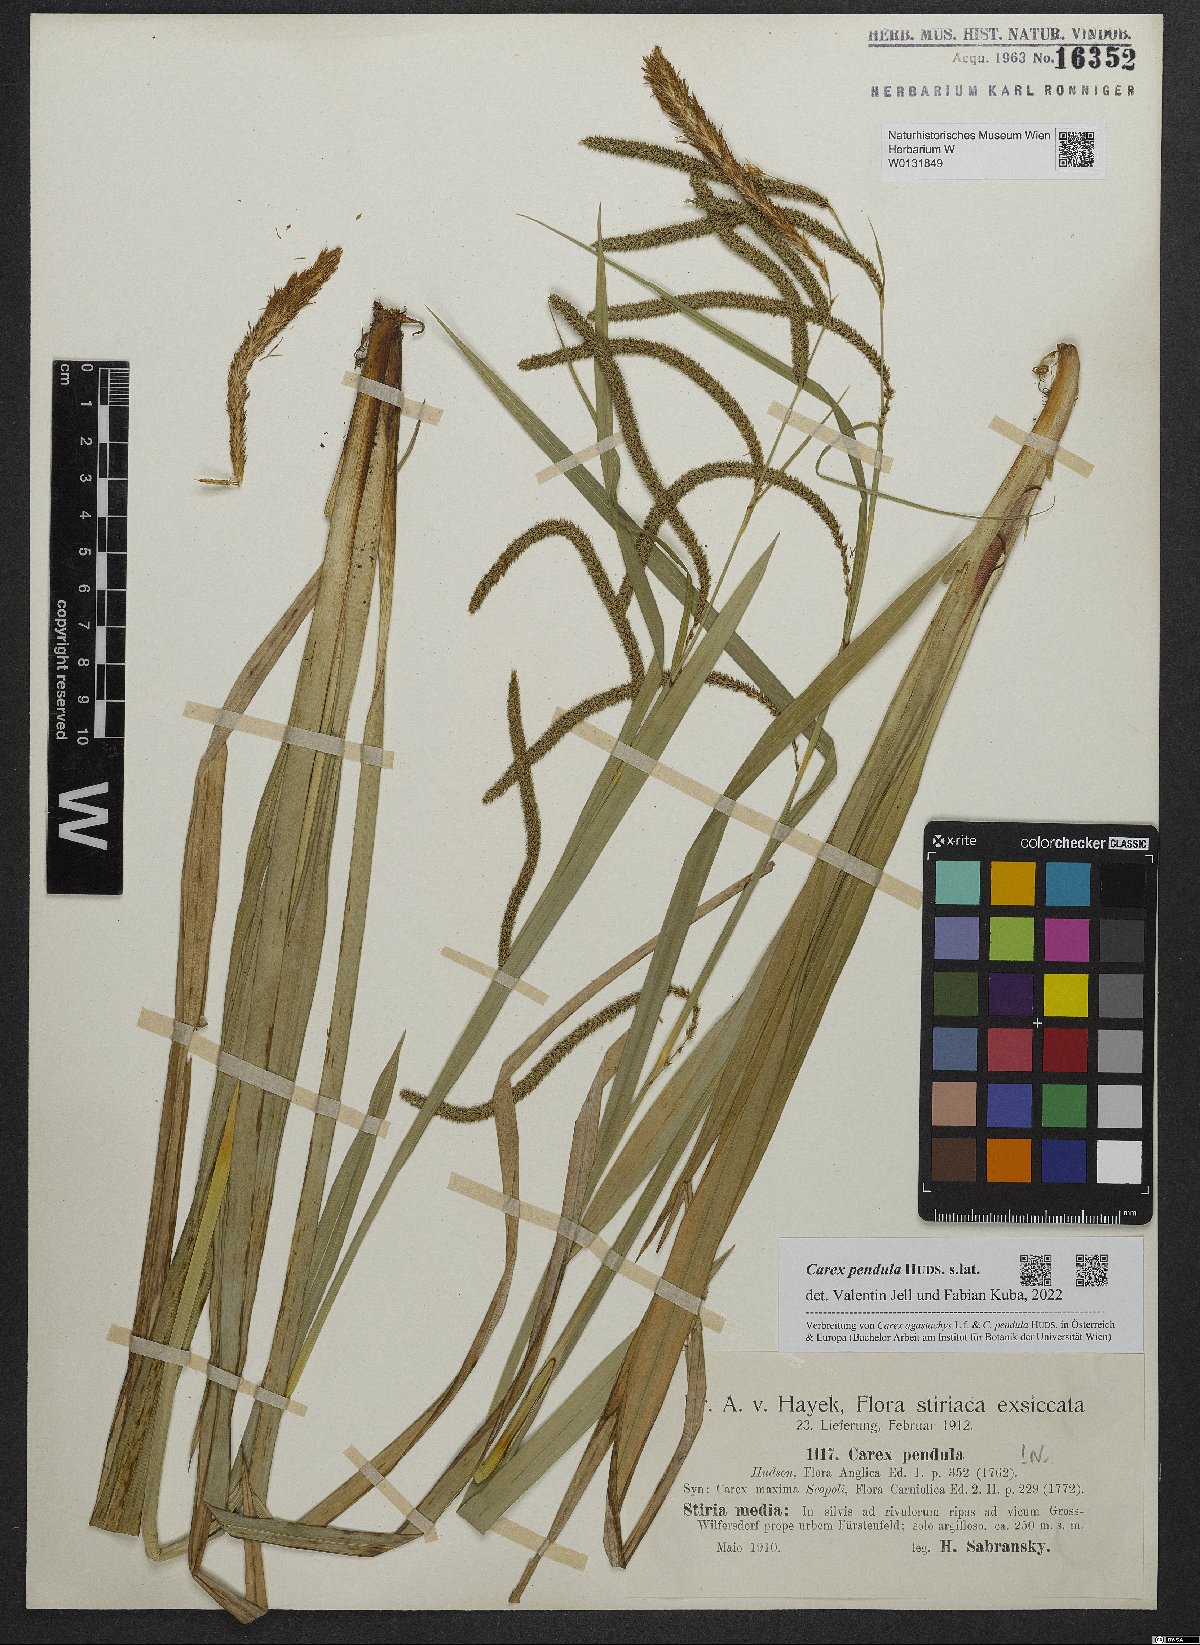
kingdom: Plantae
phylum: Tracheophyta
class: Liliopsida
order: Poales
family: Cyperaceae
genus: Carex
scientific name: Carex pendula
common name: Pendulous sedge
